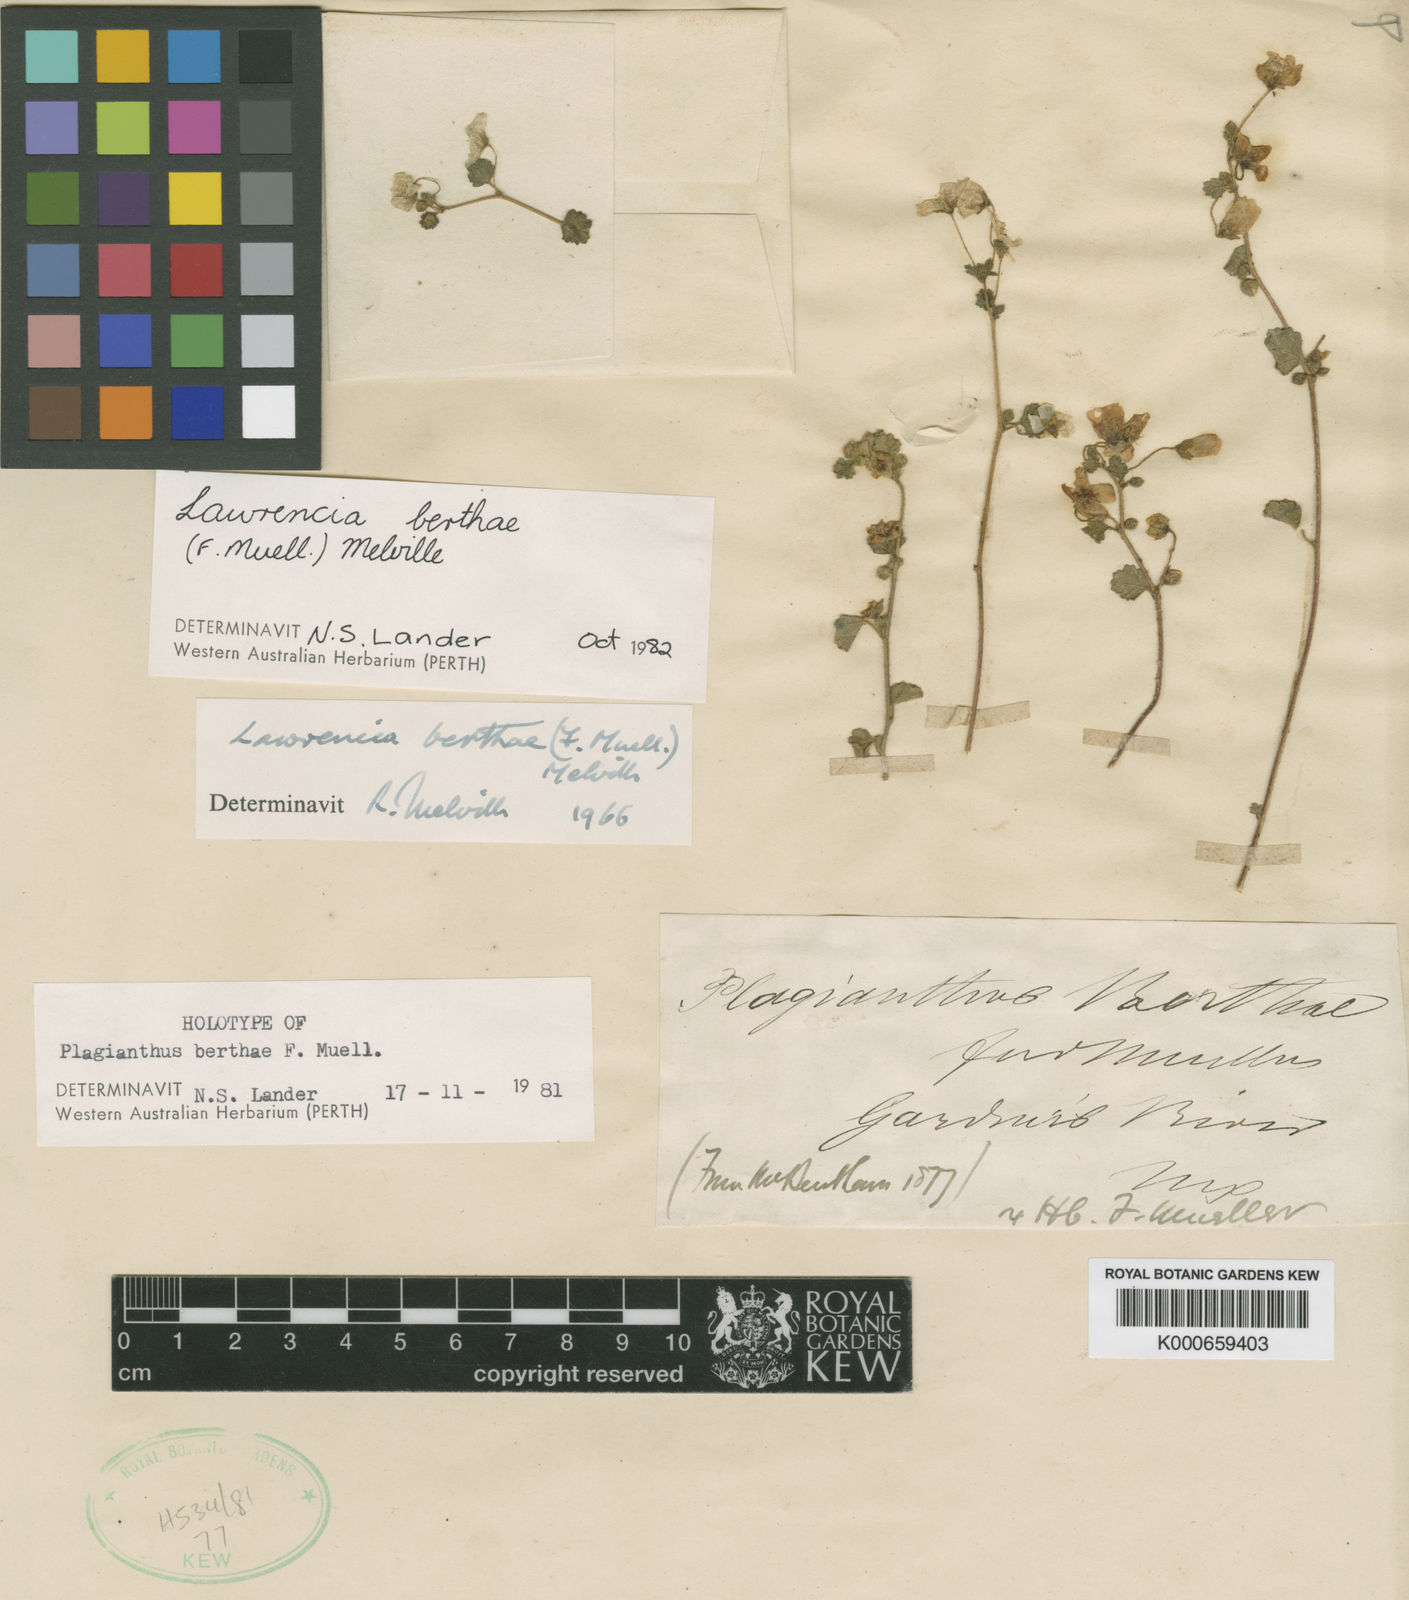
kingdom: Plantae
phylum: Tracheophyta
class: Magnoliopsida
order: Malvales
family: Malvaceae
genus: Lawrencia
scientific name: Lawrencia berthae
